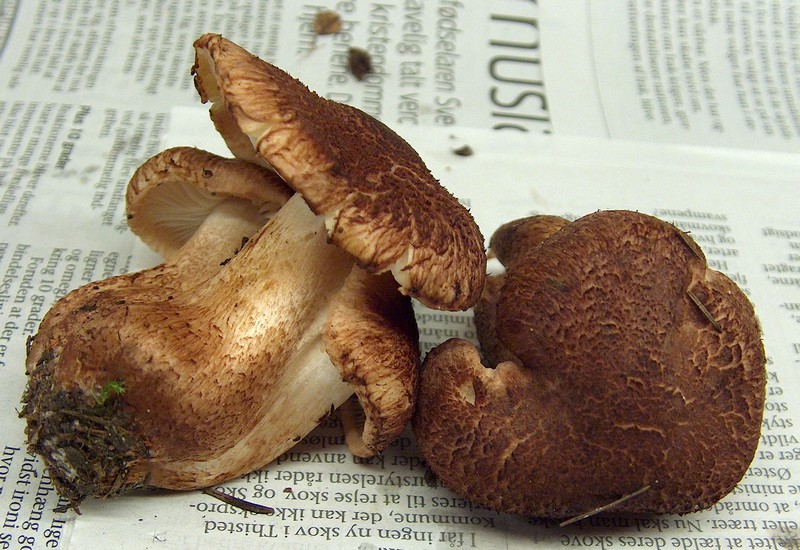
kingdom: Fungi
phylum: Basidiomycota
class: Agaricomycetes
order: Agaricales
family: Tricholomataceae
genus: Tricholoma
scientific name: Tricholoma vaccinum
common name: ko-ridderhat
